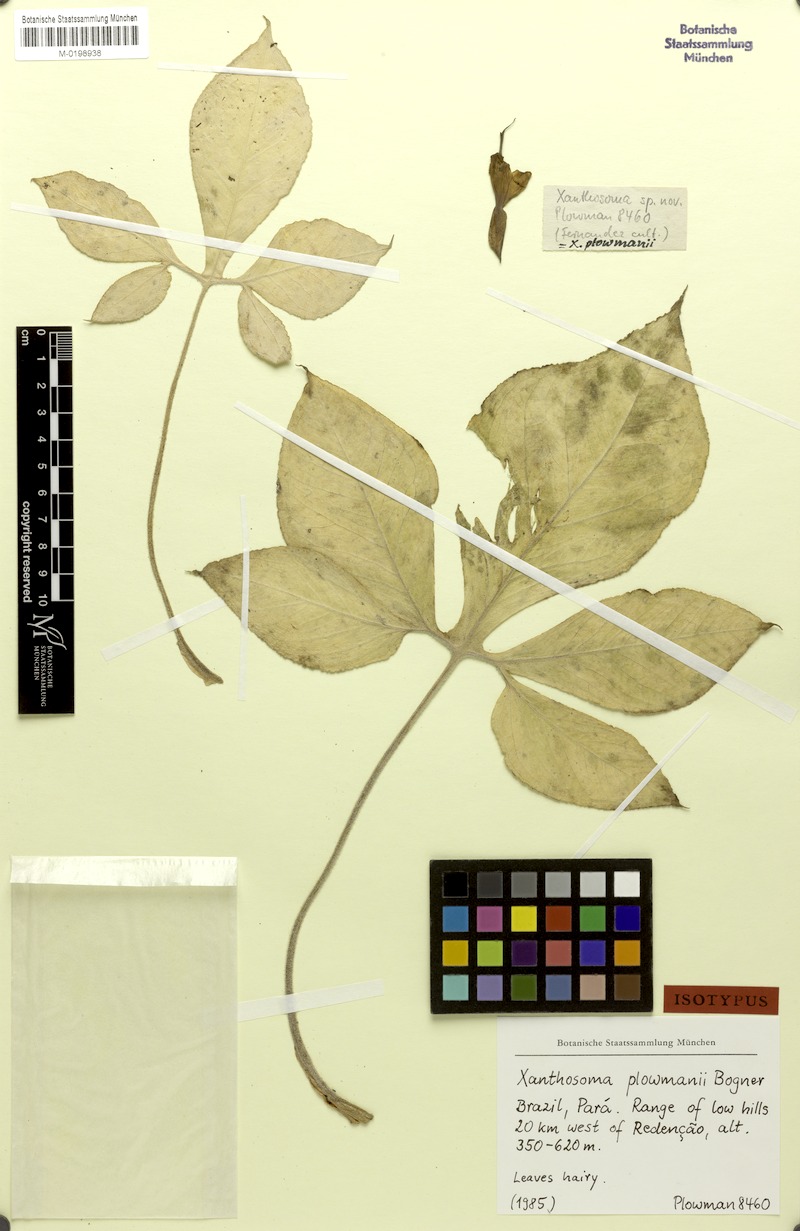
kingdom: Plantae
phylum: Tracheophyta
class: Liliopsida
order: Alismatales
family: Araceae
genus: Xanthosoma
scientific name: Xanthosoma plowmanii
